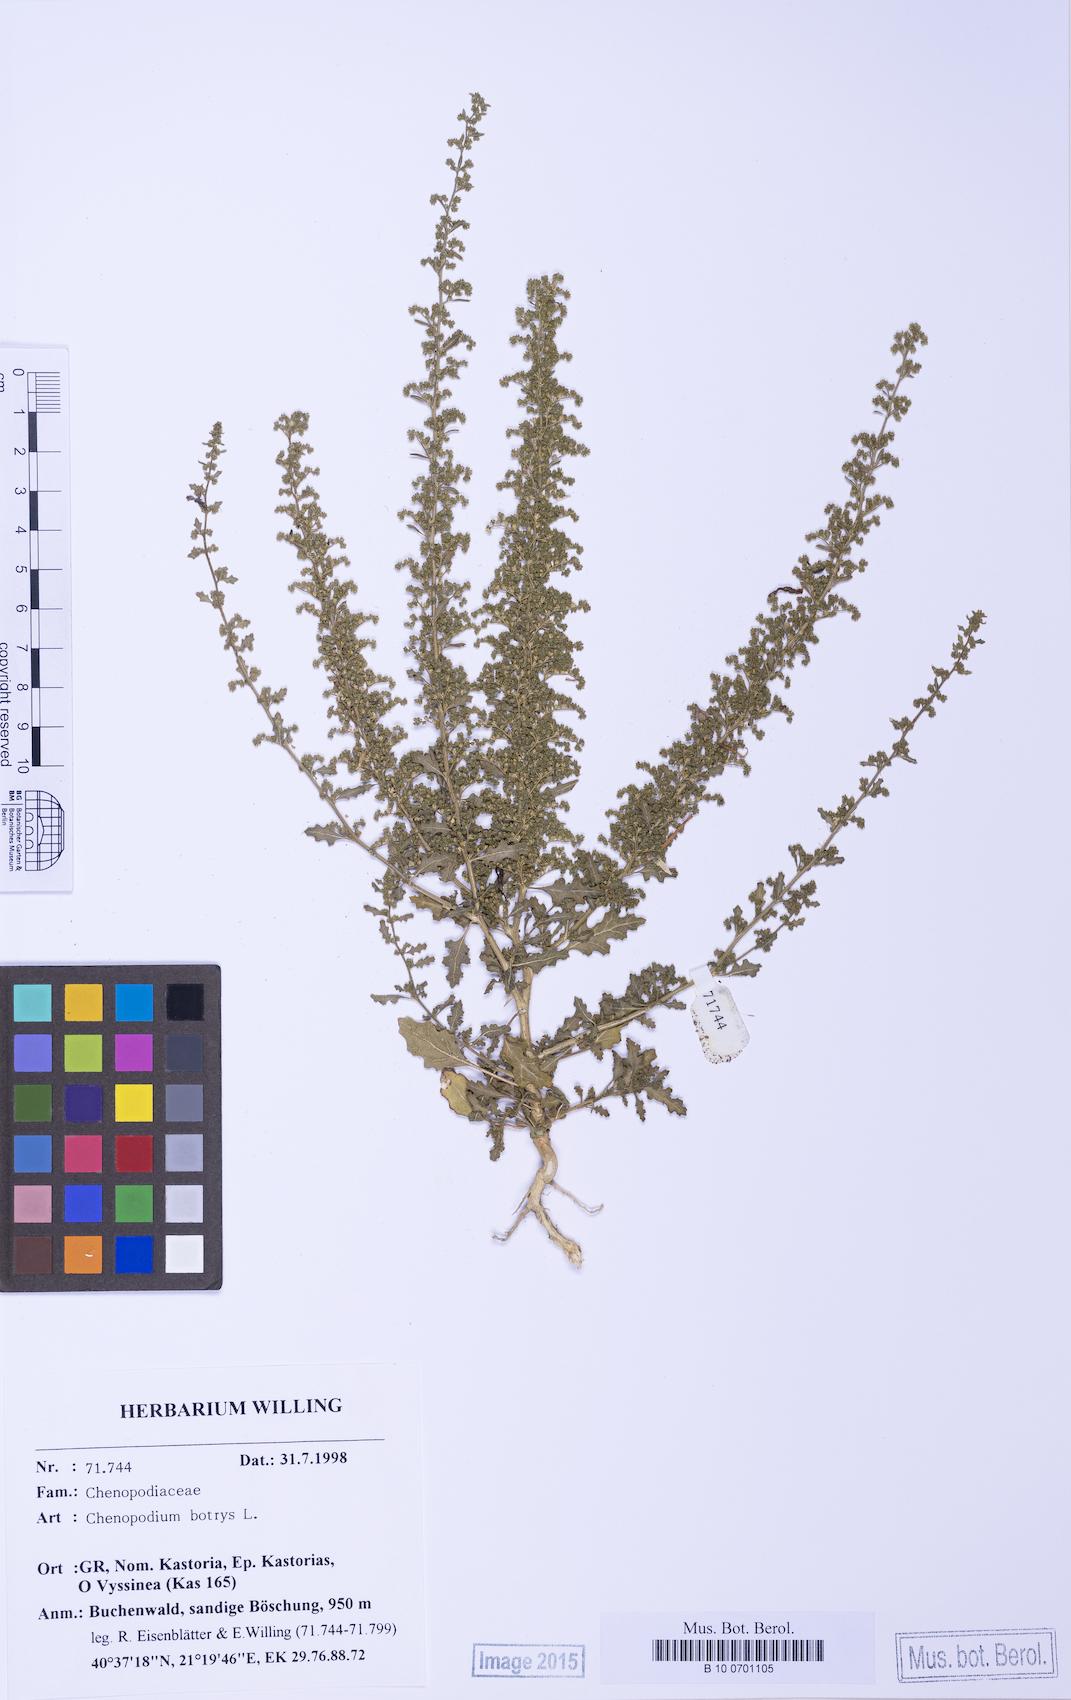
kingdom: Plantae
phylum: Tracheophyta
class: Magnoliopsida
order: Caryophyllales
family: Amaranthaceae
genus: Dysphania
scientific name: Dysphania botrys
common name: Feather-geranium
